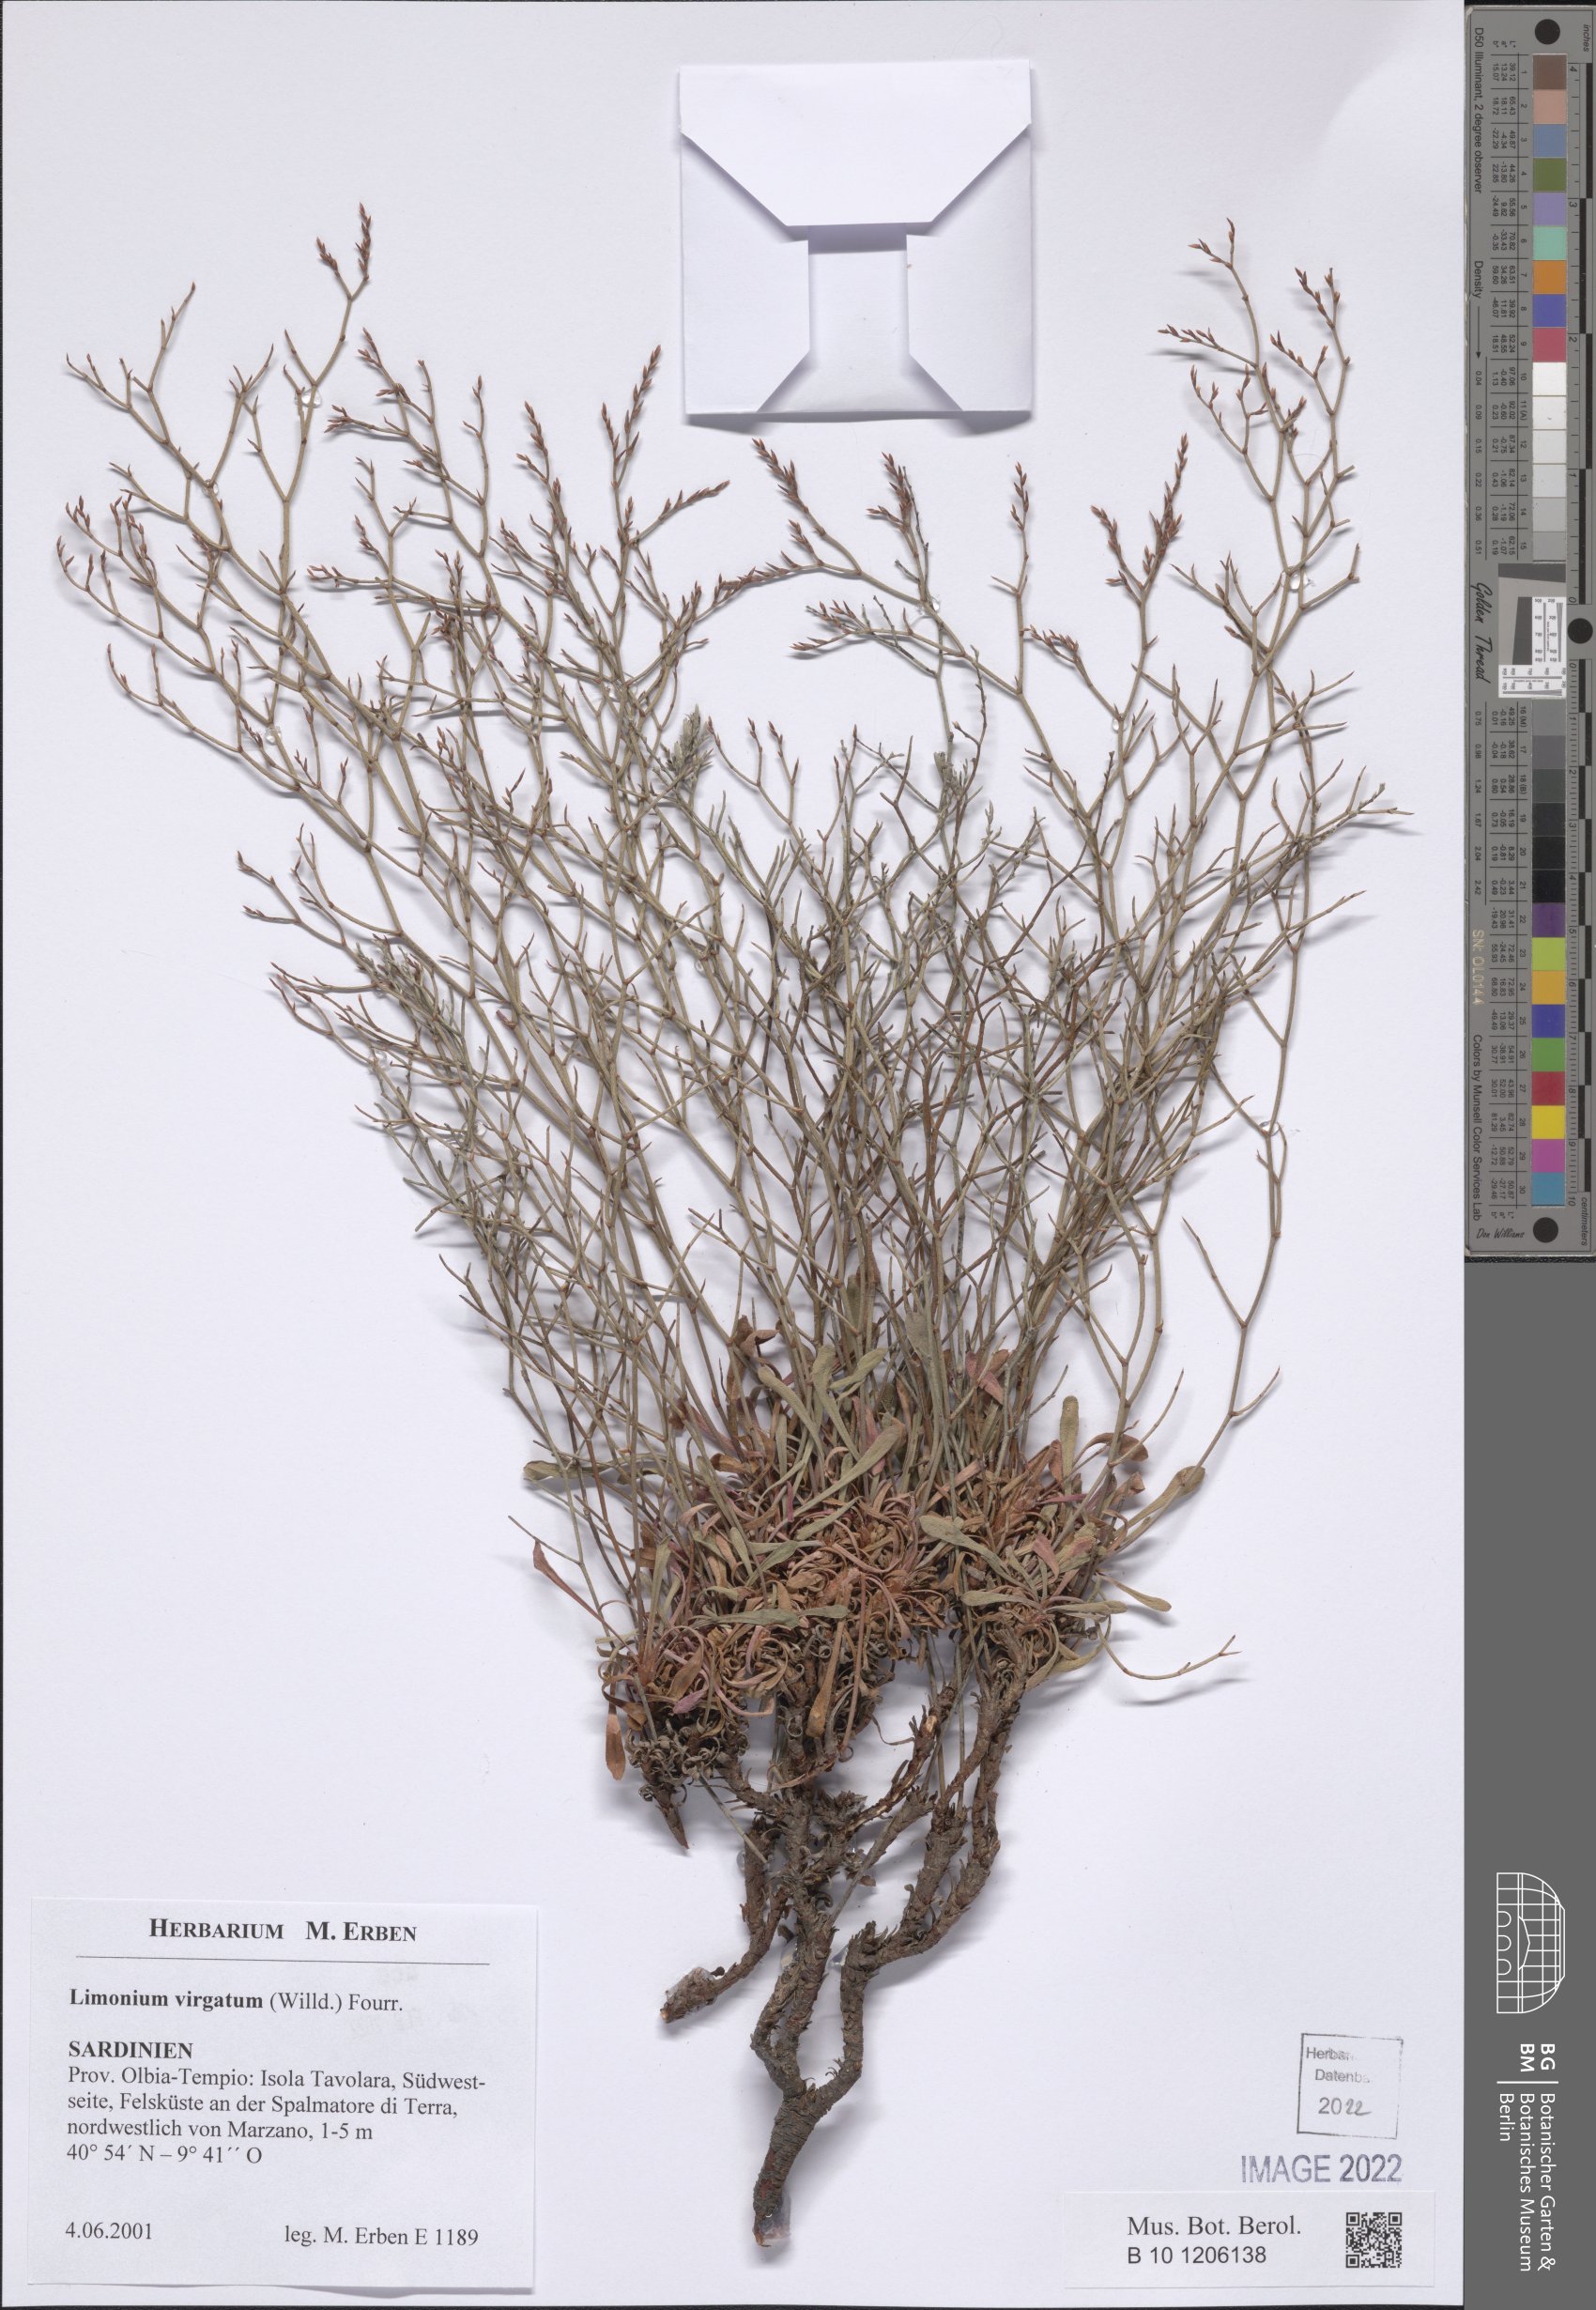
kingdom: Plantae
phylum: Tracheophyta
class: Magnoliopsida
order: Caryophyllales
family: Plumbaginaceae
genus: Limonium
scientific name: Limonium virgatum
